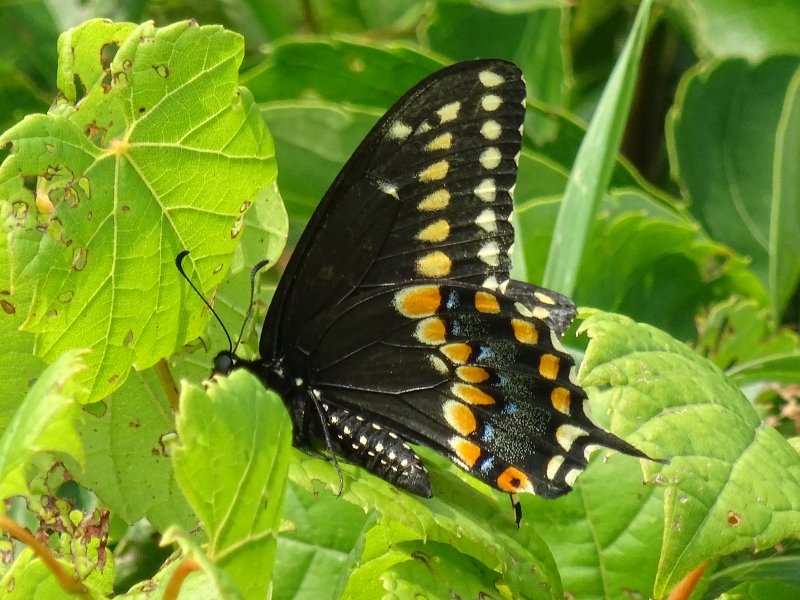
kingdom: Animalia
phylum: Arthropoda
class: Insecta
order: Lepidoptera
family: Papilionidae
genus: Papilio
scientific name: Papilio polyxenes
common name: Black Swallowtail
